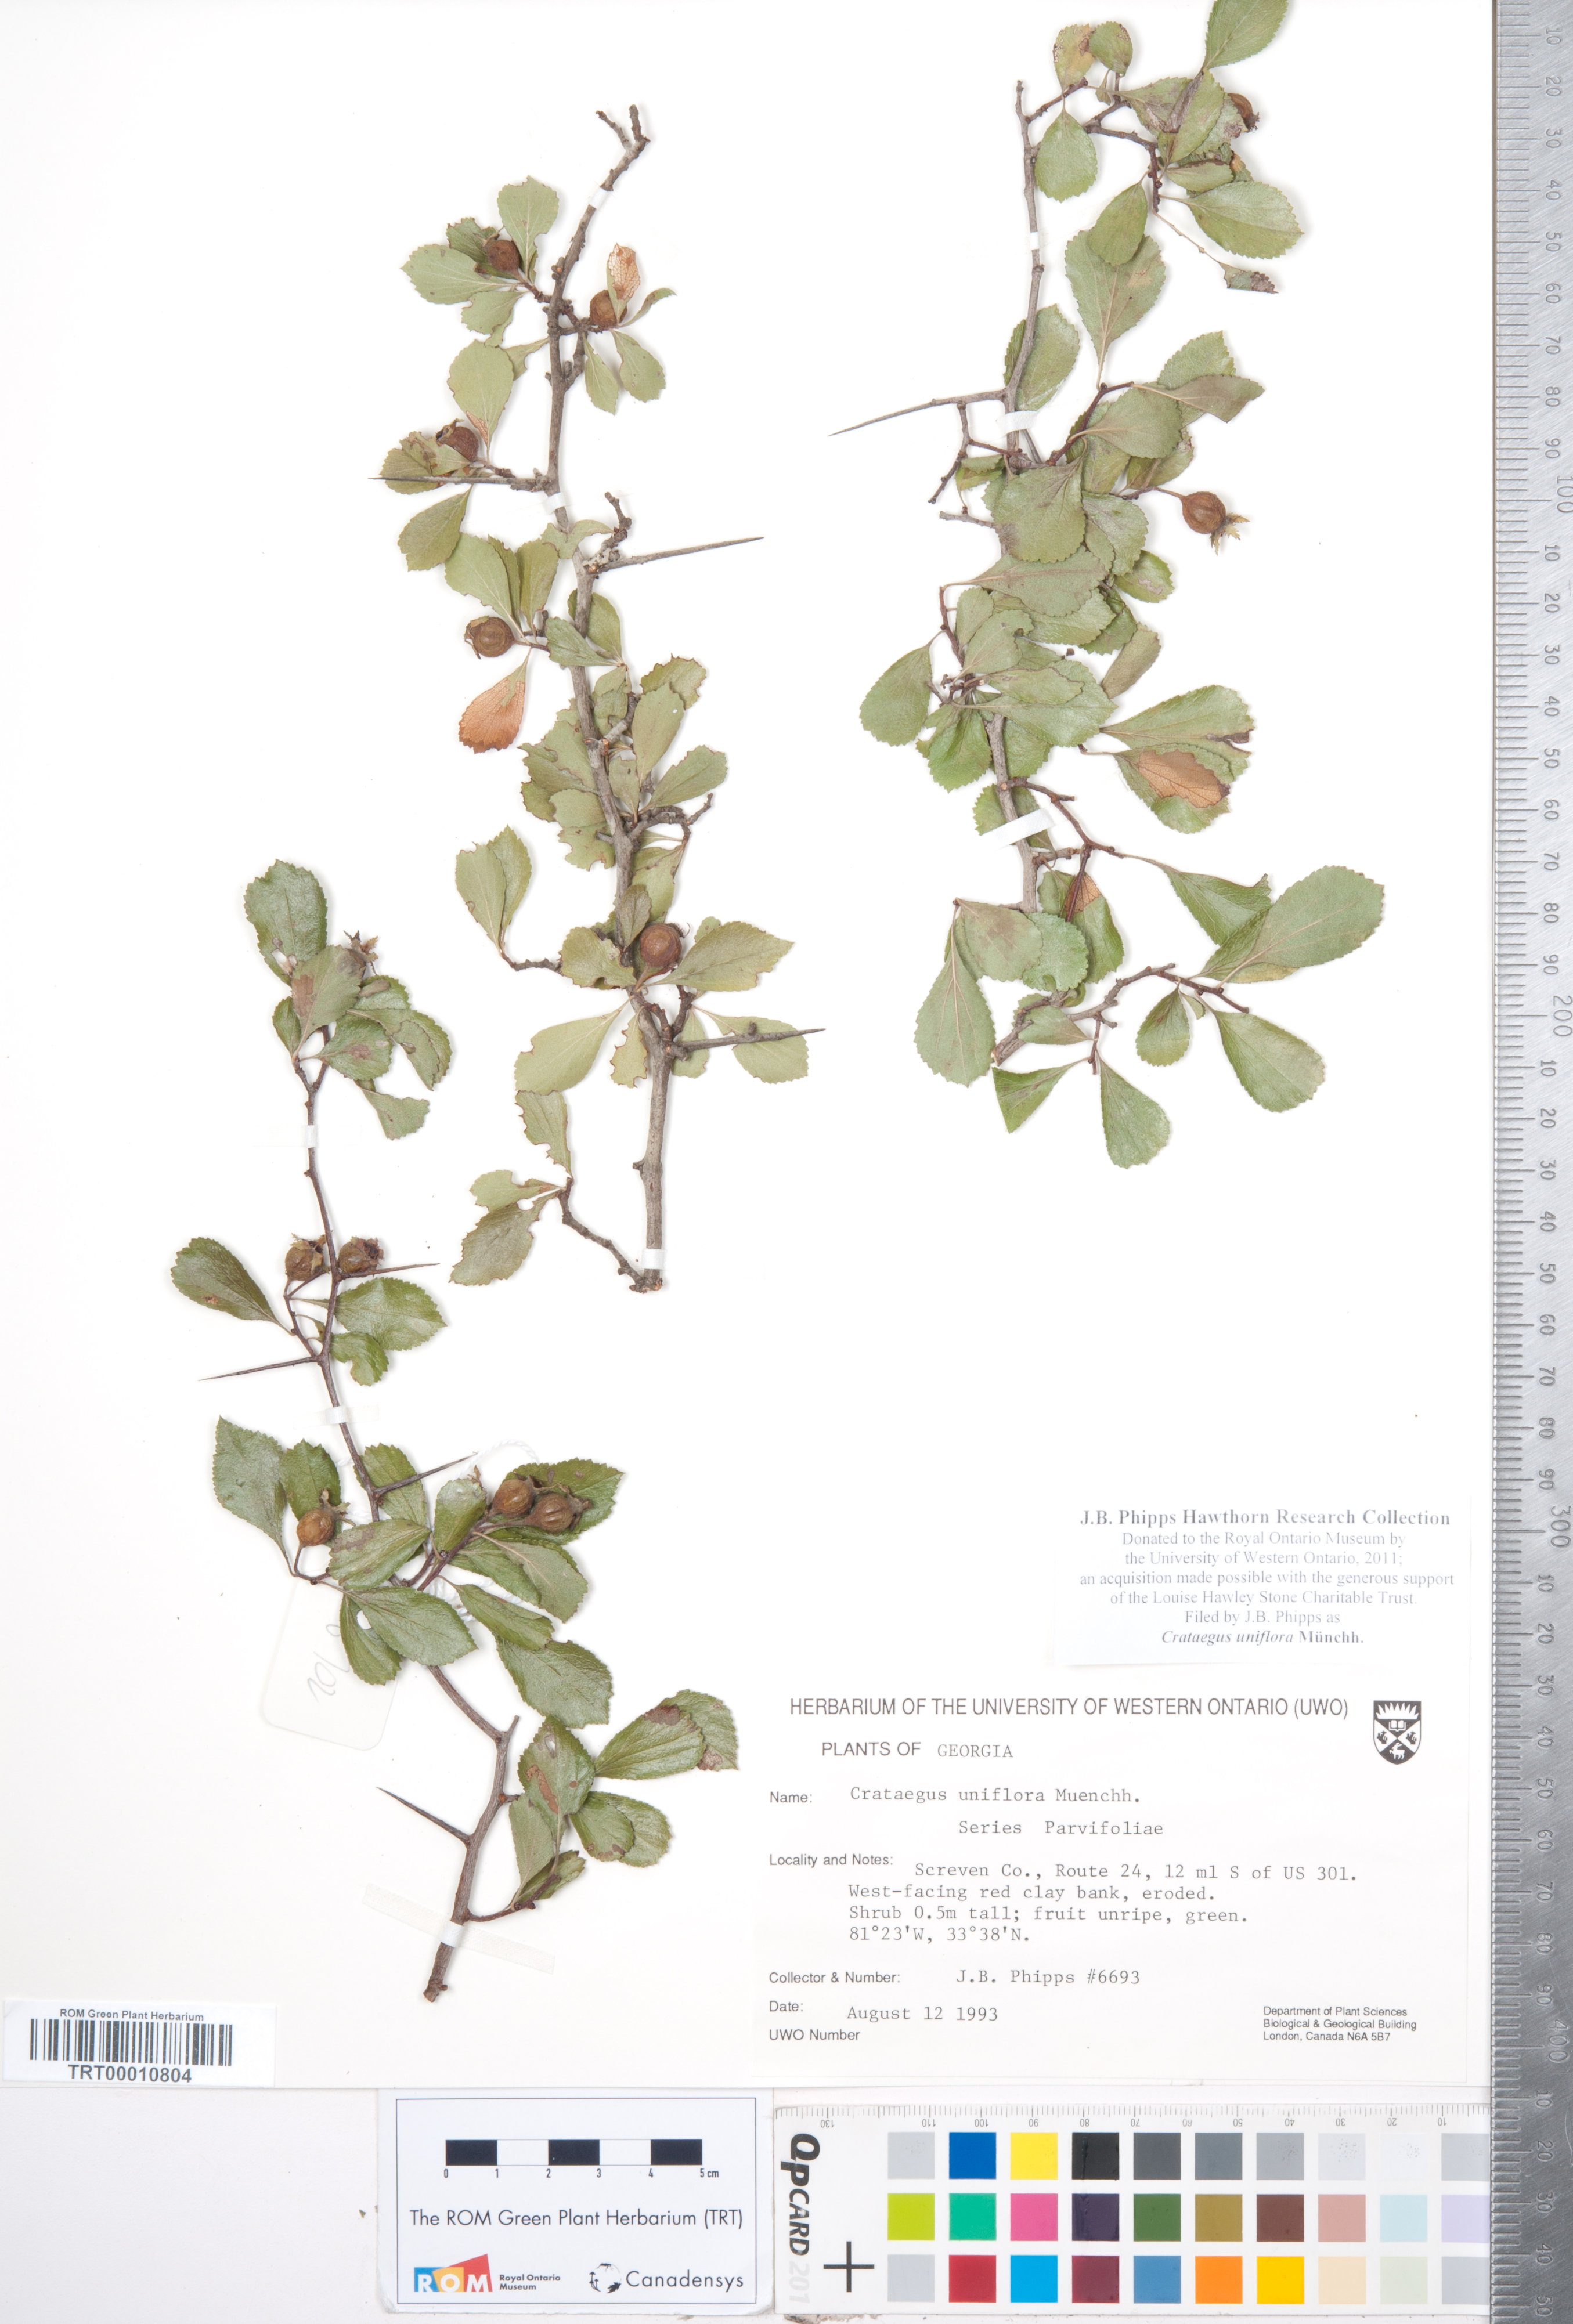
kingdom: Plantae
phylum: Tracheophyta
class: Magnoliopsida
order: Rosales
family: Rosaceae
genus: Crataegus
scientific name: Crataegus uniflora
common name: One-flower hawthorn
